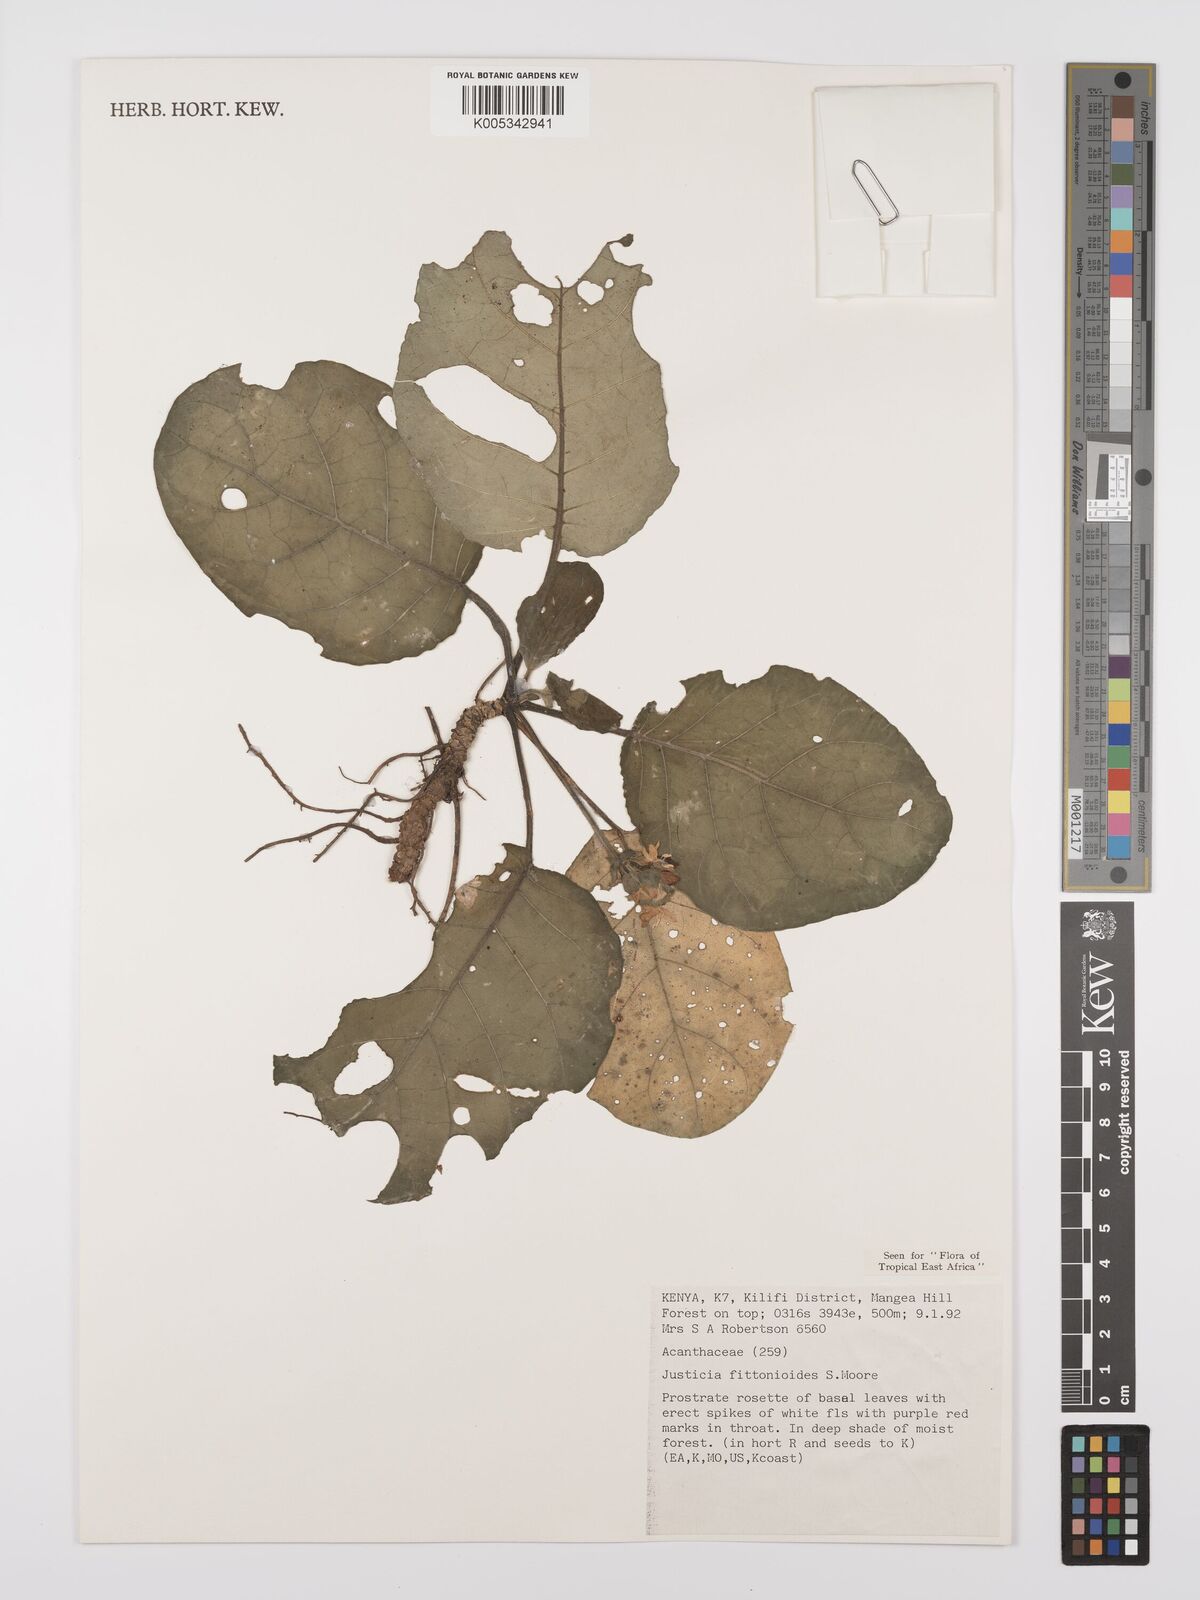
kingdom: Plantae
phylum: Tracheophyta
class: Magnoliopsida
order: Lamiales
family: Acanthaceae
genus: Justicia
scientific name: Justicia
